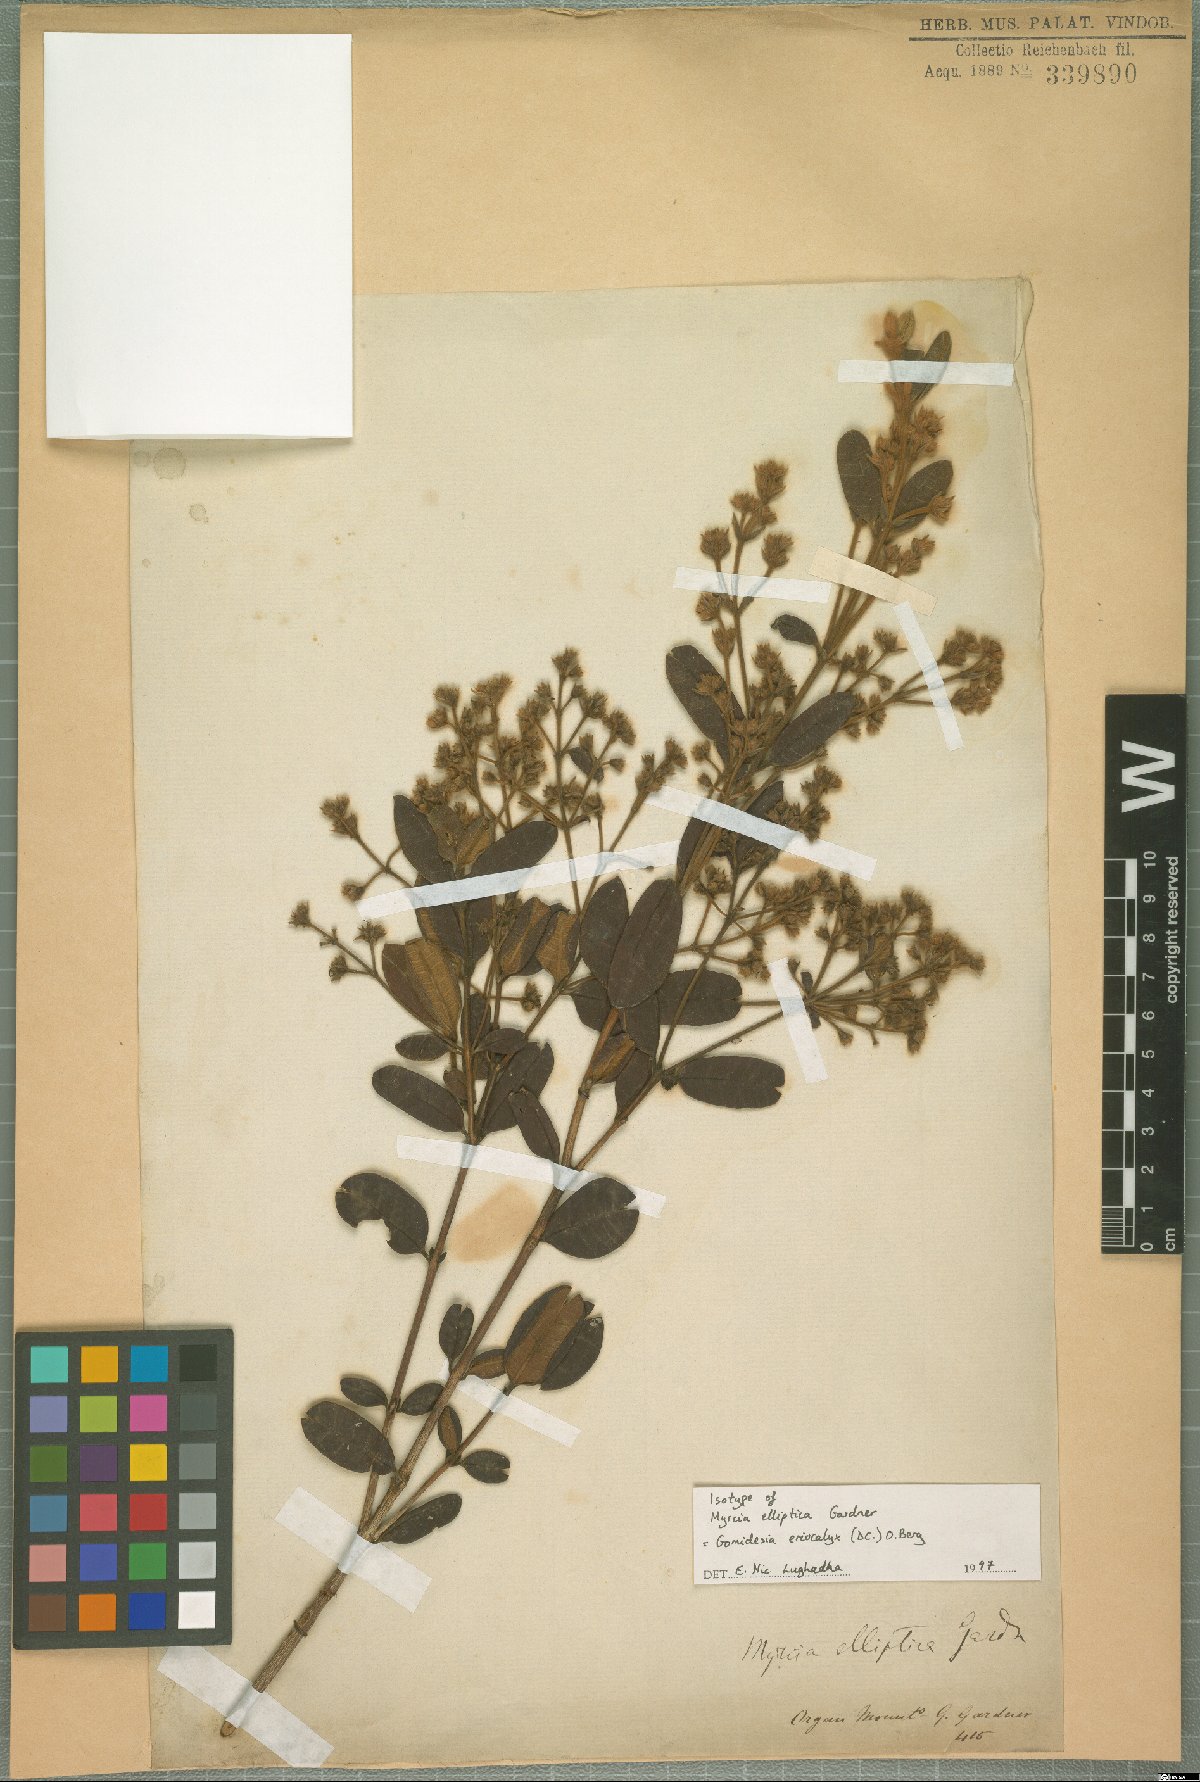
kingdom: Plantae
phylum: Tracheophyta
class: Magnoliopsida
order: Myrtales
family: Myrtaceae
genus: Myrcia
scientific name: Myrcia eriocalyx
